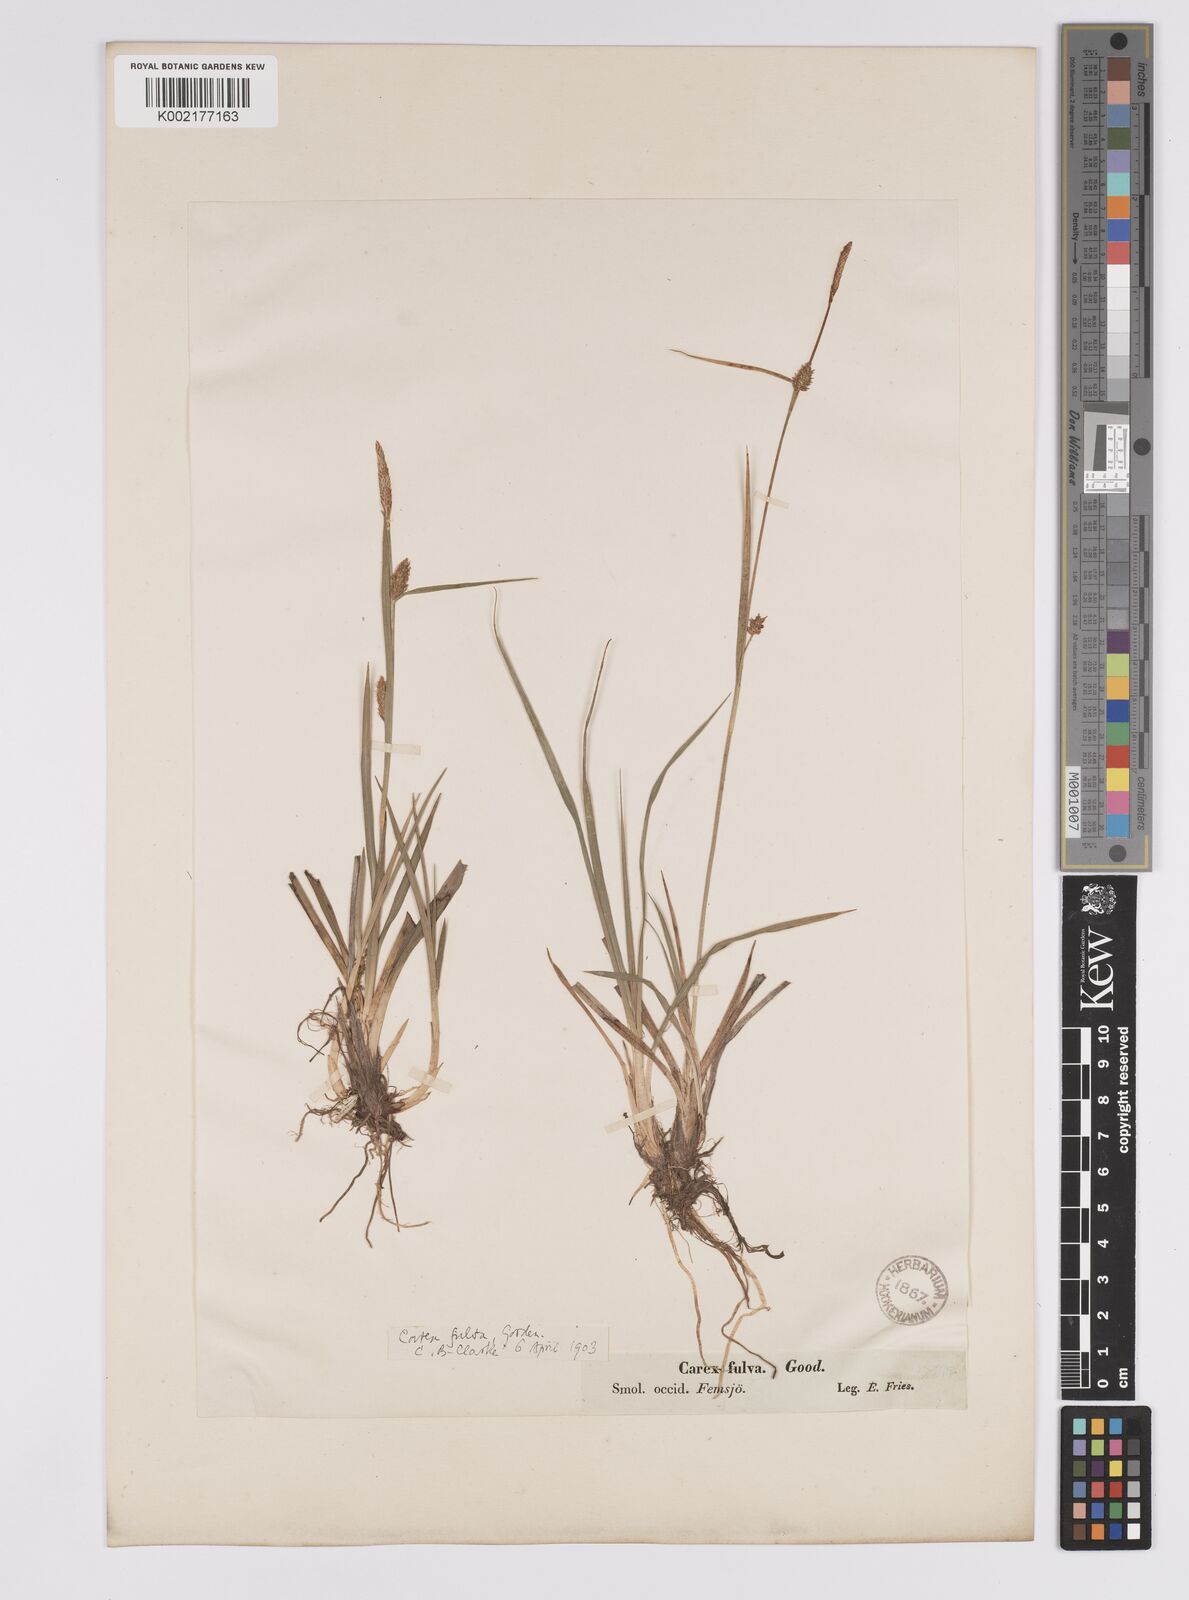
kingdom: Plantae
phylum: Tracheophyta
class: Liliopsida
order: Poales
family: Cyperaceae
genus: Carex
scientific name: Carex hostiana
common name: Tawny sedge
